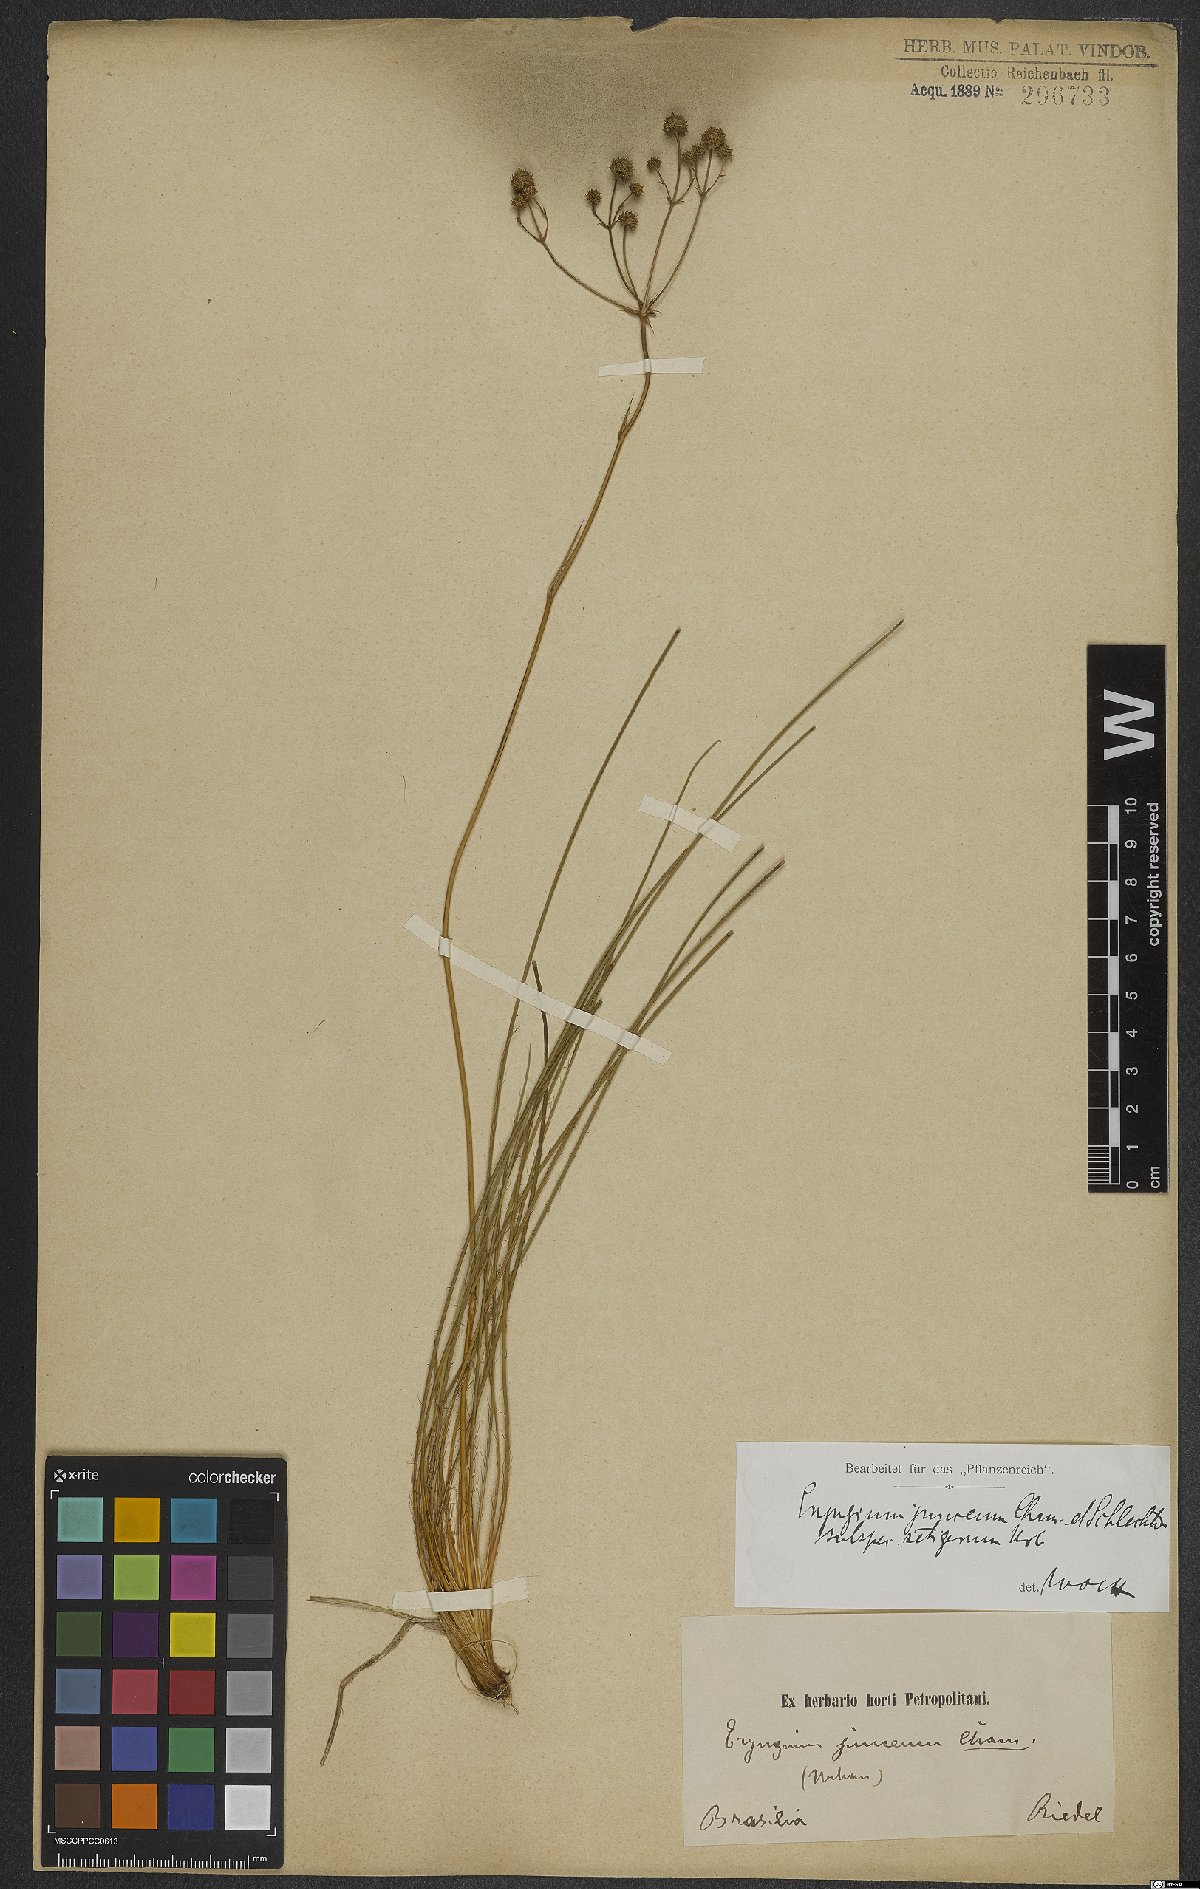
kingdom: Plantae
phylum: Tracheophyta
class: Magnoliopsida
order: Apiales
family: Apiaceae
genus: Eryngium
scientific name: Eryngium junceum
